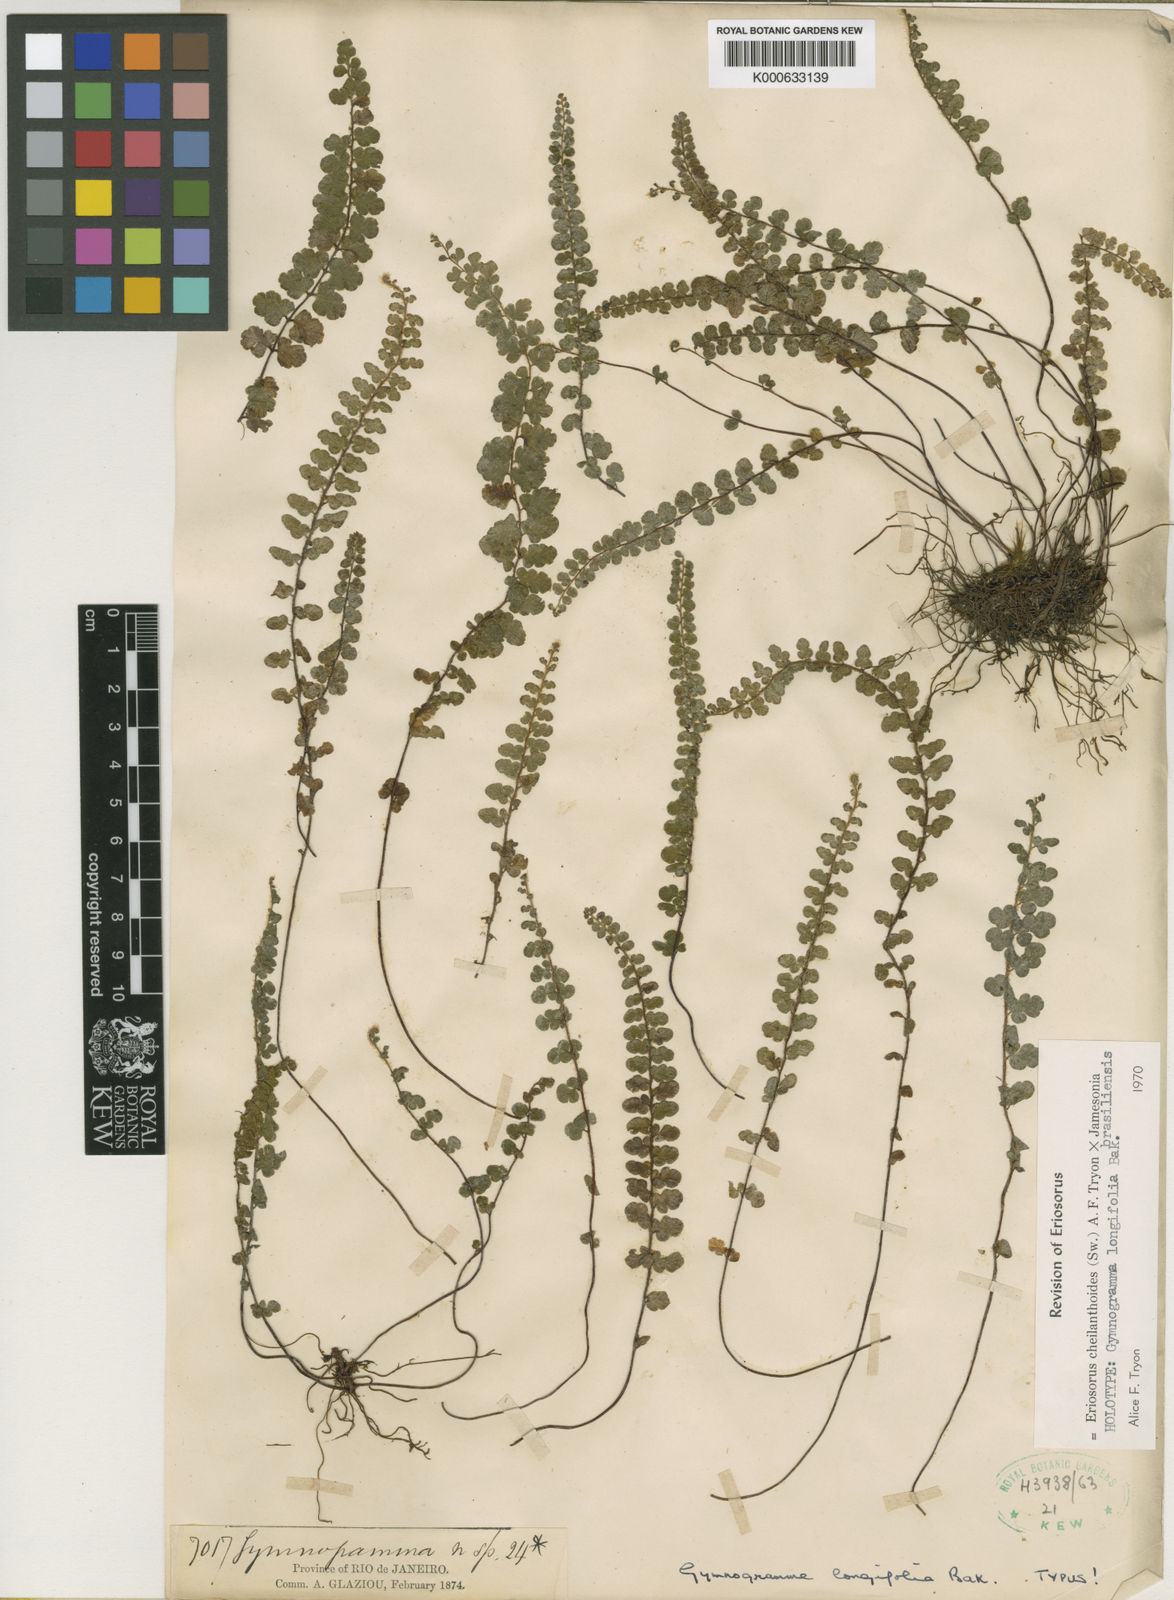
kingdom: Plantae
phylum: Tracheophyta
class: Polypodiopsida
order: Polypodiales
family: Pteridaceae
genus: Jamesonia
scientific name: Jamesonia cheilanthoides
